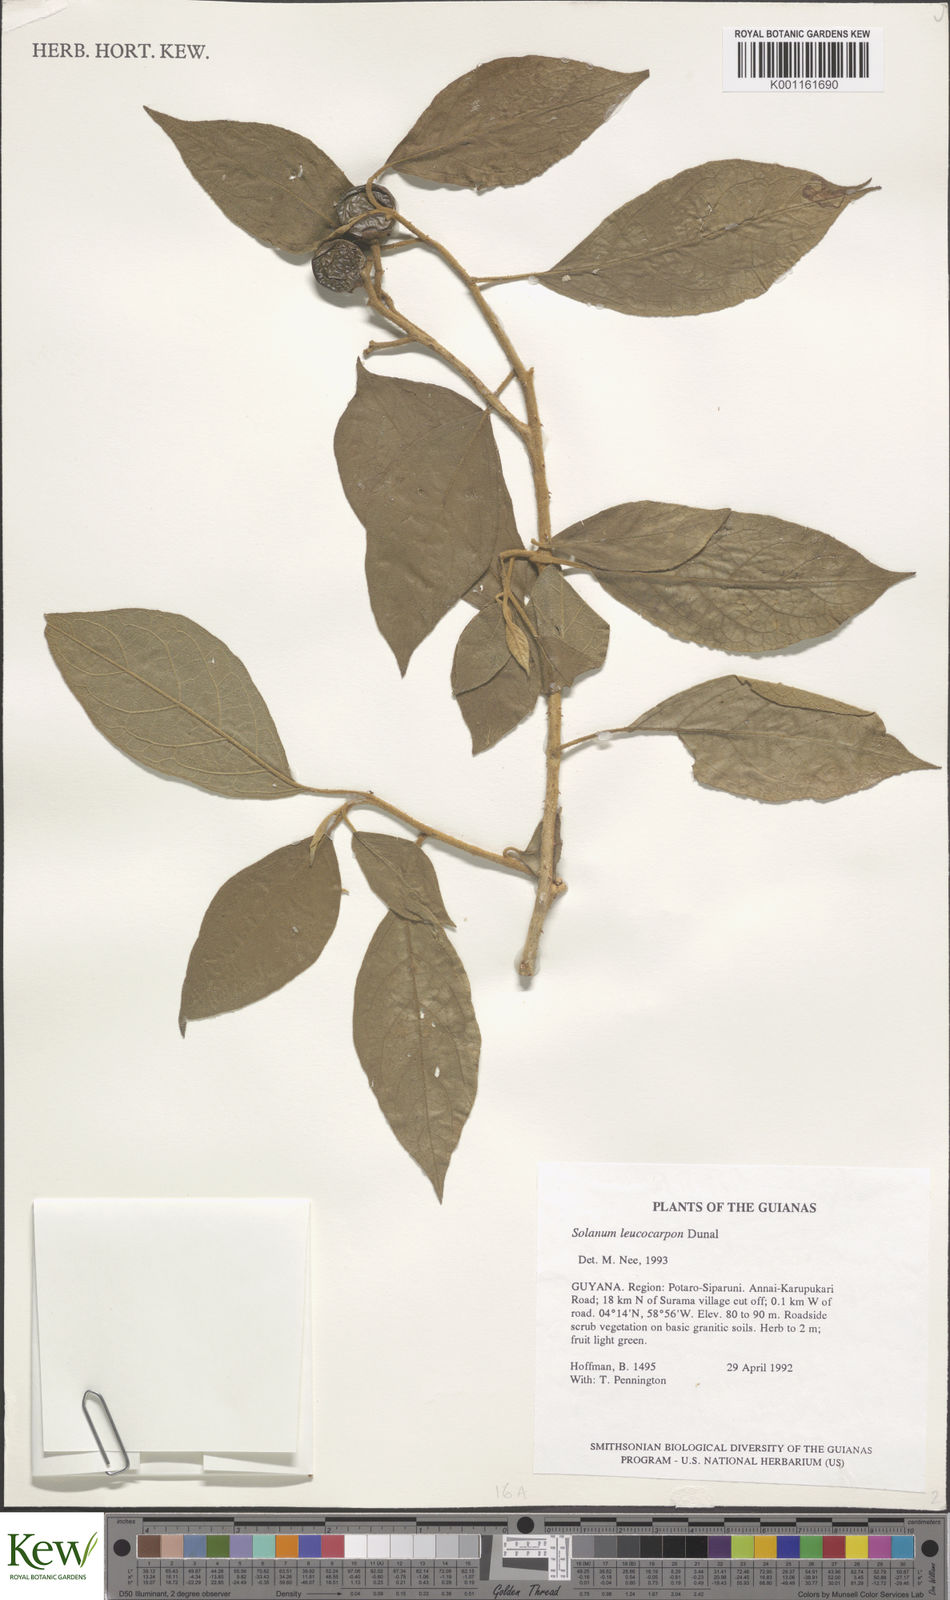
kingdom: Plantae
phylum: Tracheophyta
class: Magnoliopsida
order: Solanales
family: Solanaceae
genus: Solanum
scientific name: Solanum leucocarpon
